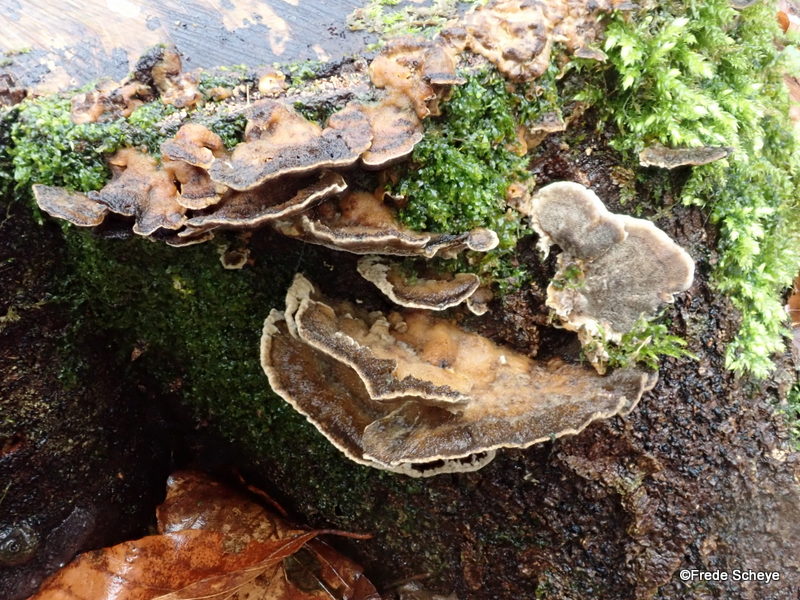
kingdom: Fungi
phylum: Basidiomycota
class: Agaricomycetes
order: Polyporales
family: Phanerochaetaceae
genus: Bjerkandera
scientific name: Bjerkandera adusta
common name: sveden sodporesvamp
